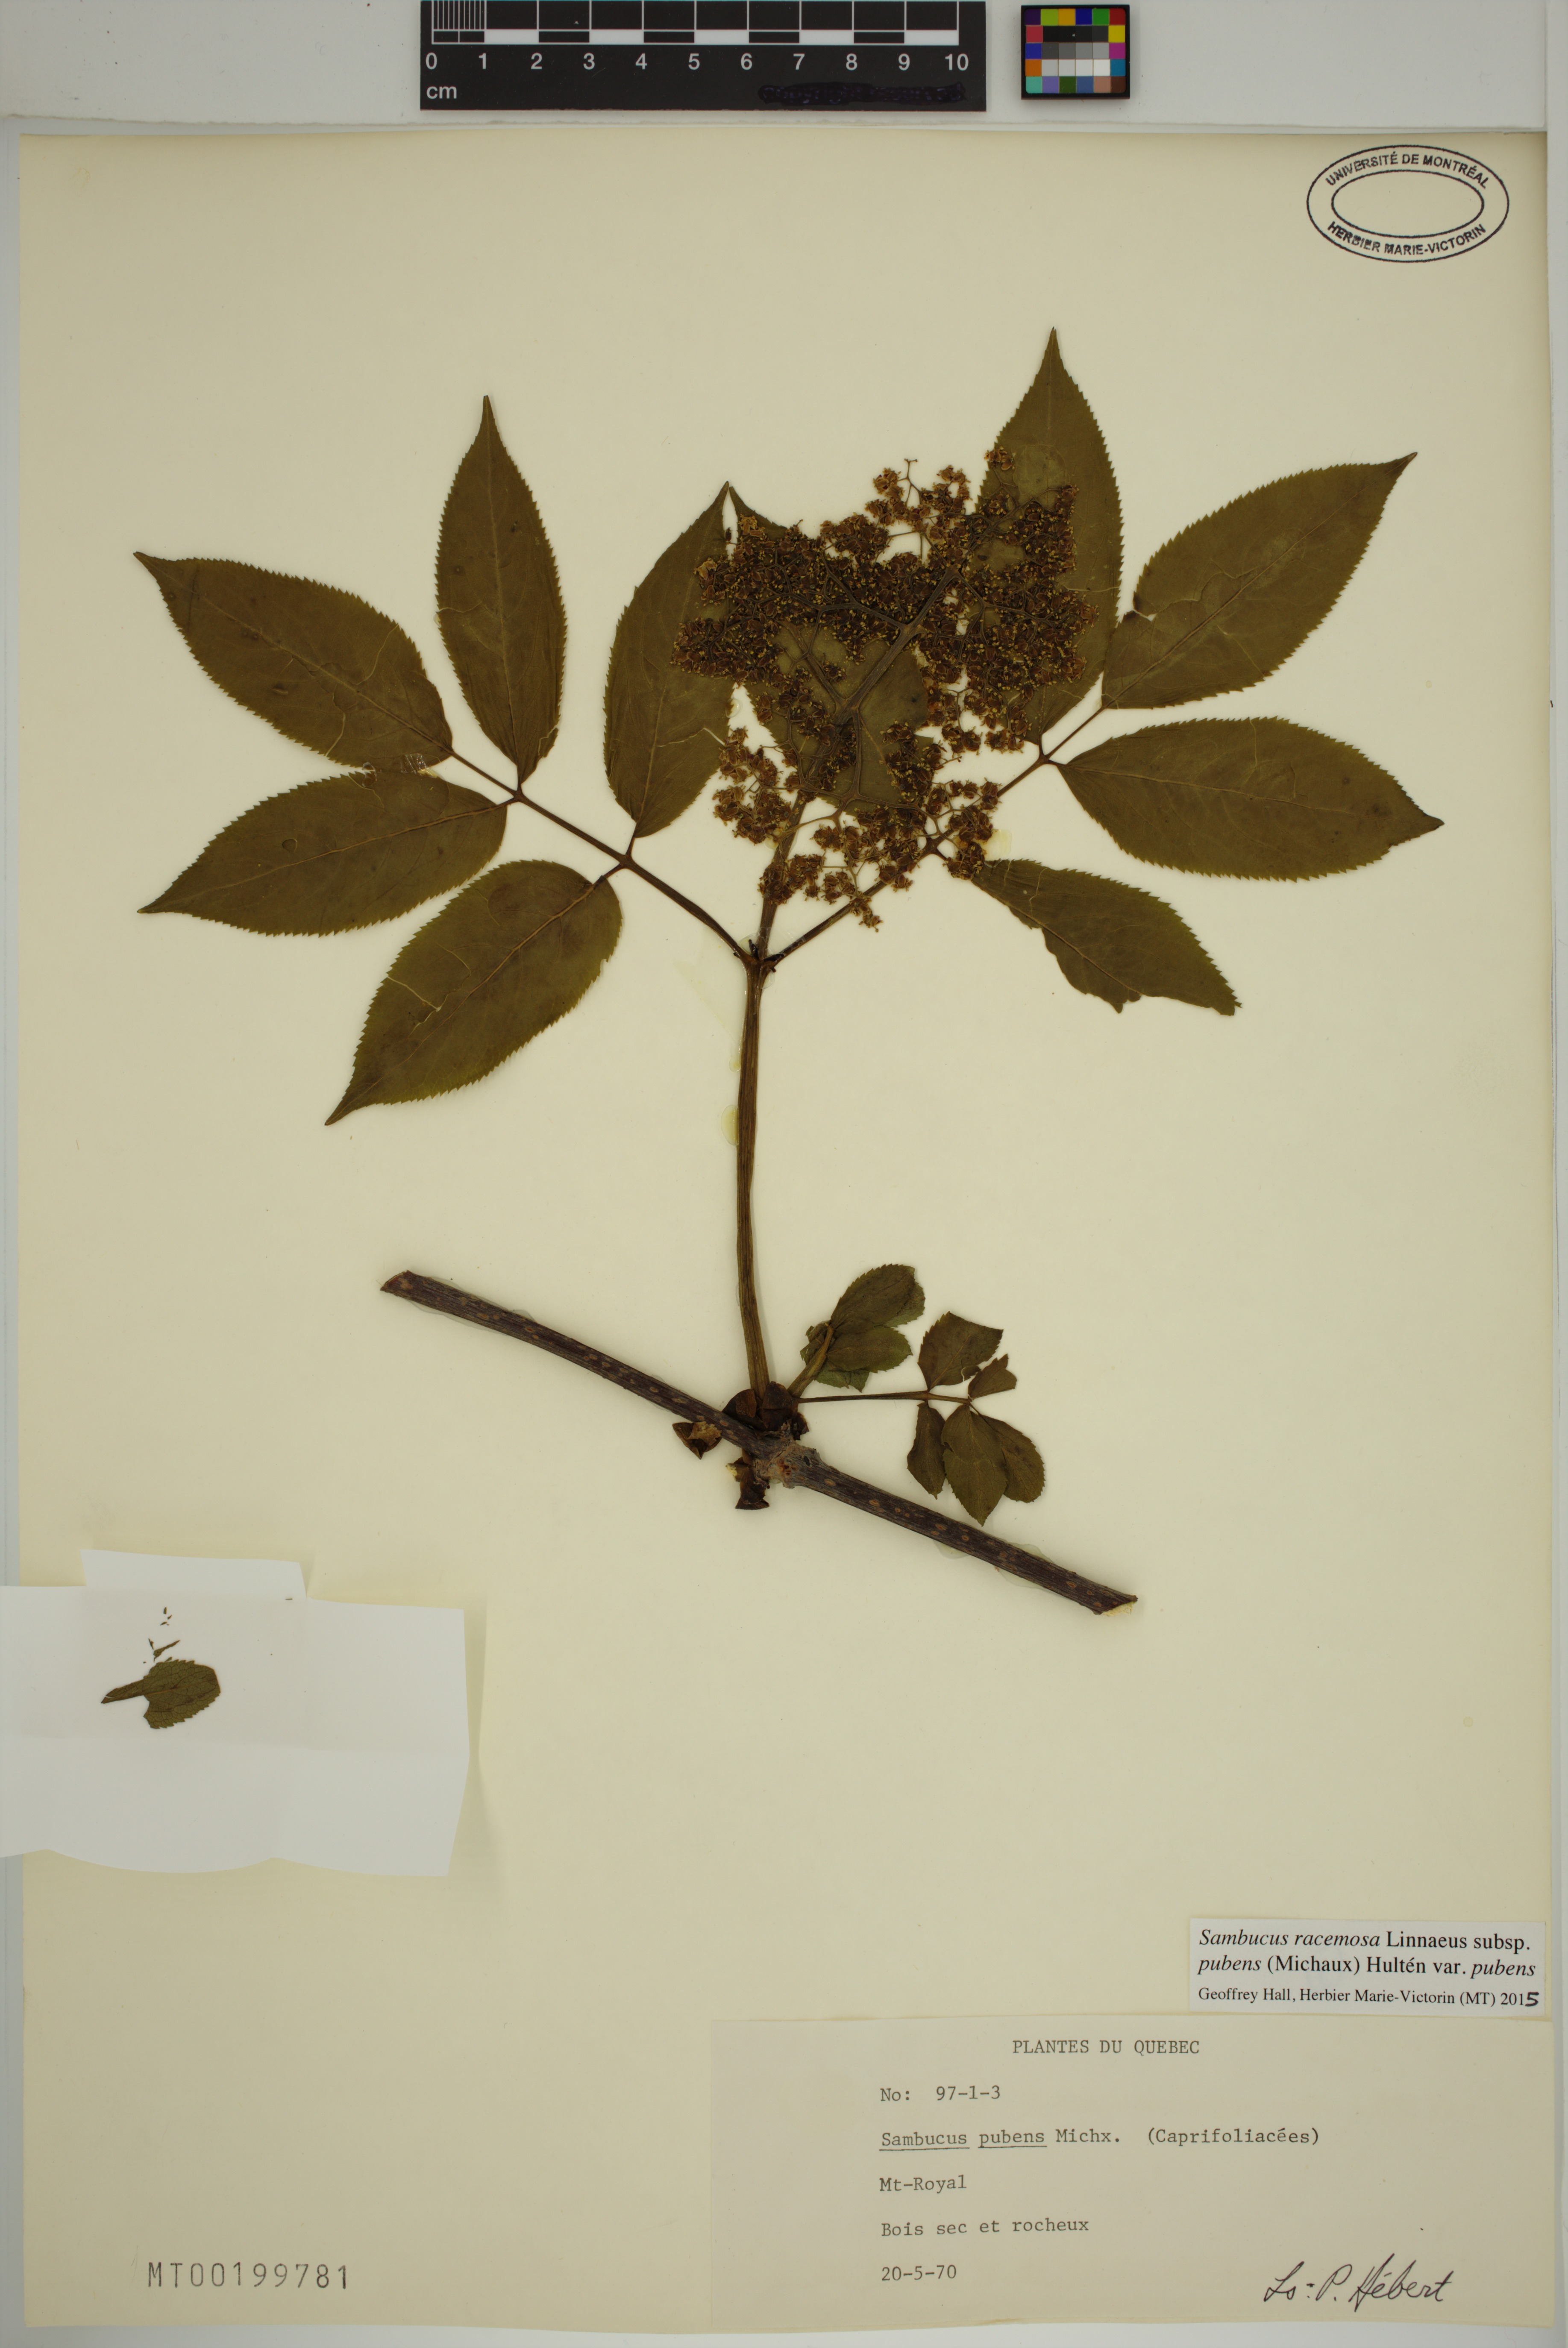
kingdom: Plantae
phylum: Tracheophyta
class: Magnoliopsida
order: Dipsacales
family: Viburnaceae
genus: Sambucus
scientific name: Sambucus racemosa
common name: Red-berried elder
